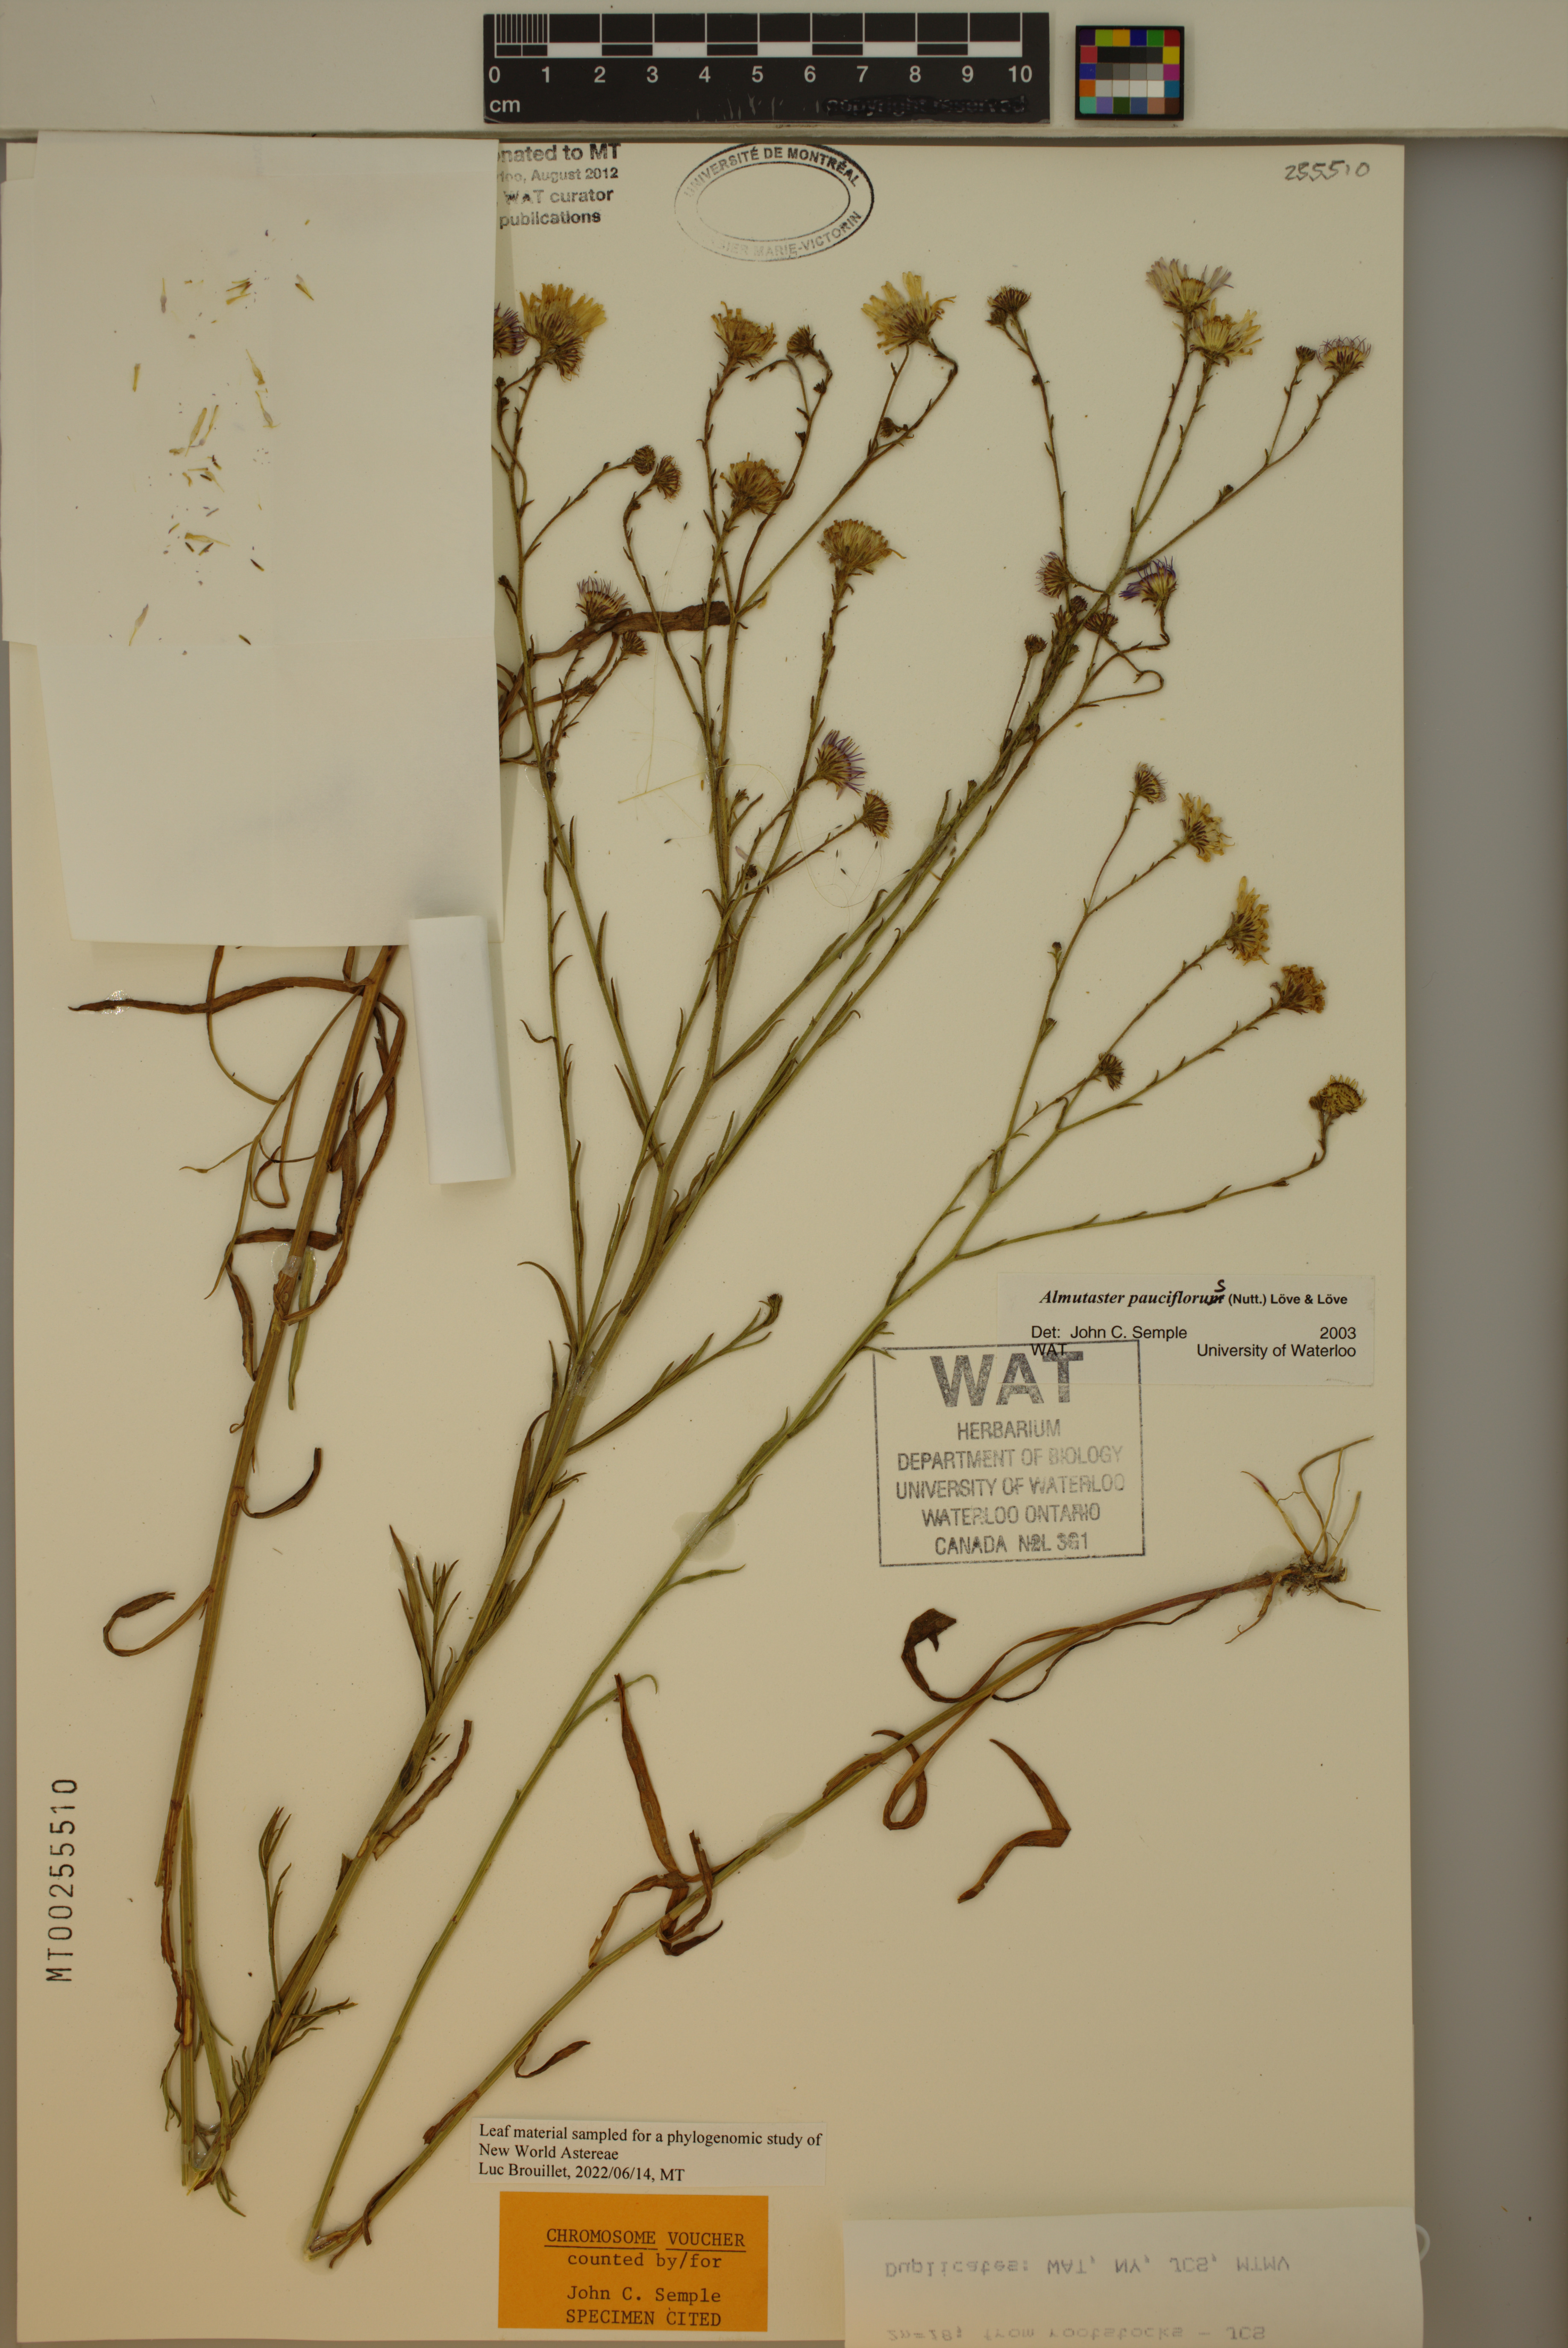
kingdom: Plantae
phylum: Tracheophyta
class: Magnoliopsida
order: Asterales
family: Asteraceae
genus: Almutaster
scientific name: Almutaster pauciflorus
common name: Alkaline aster
